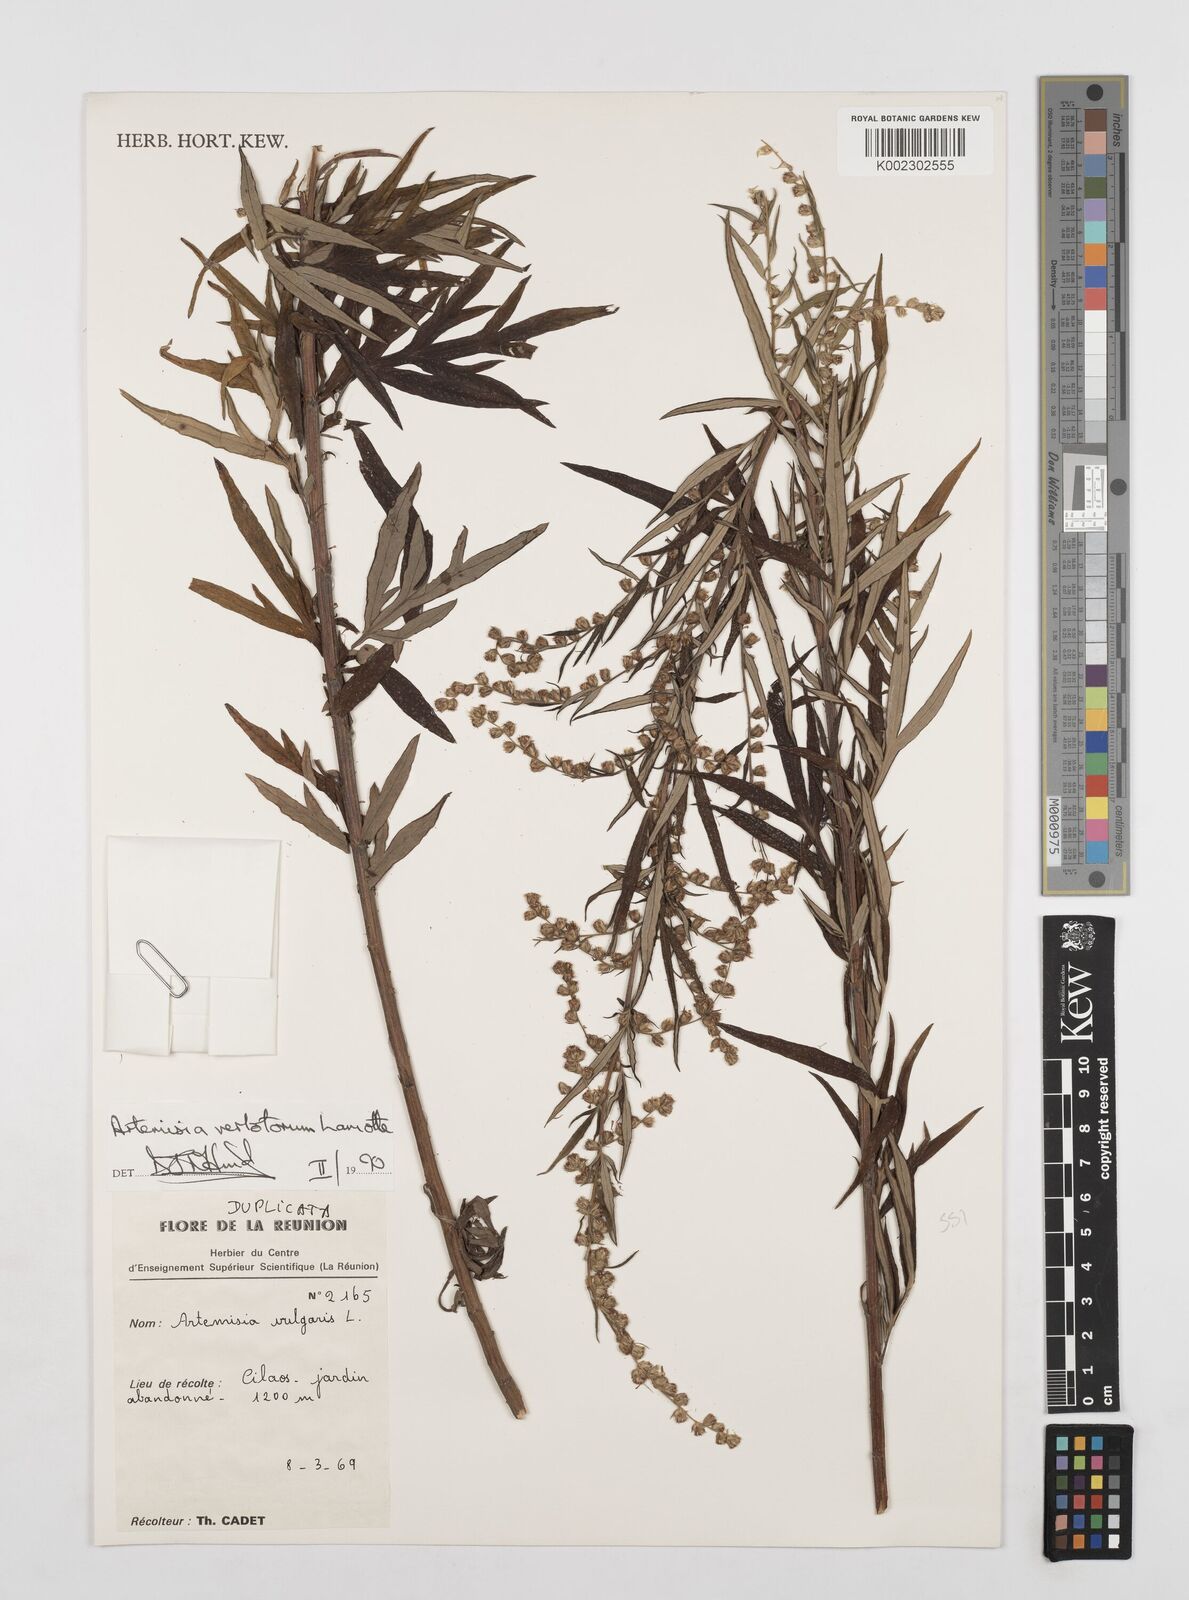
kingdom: Plantae
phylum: Tracheophyta
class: Magnoliopsida
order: Asterales
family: Asteraceae
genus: Artemisia
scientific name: Artemisia vulgaris
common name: Mugwort
